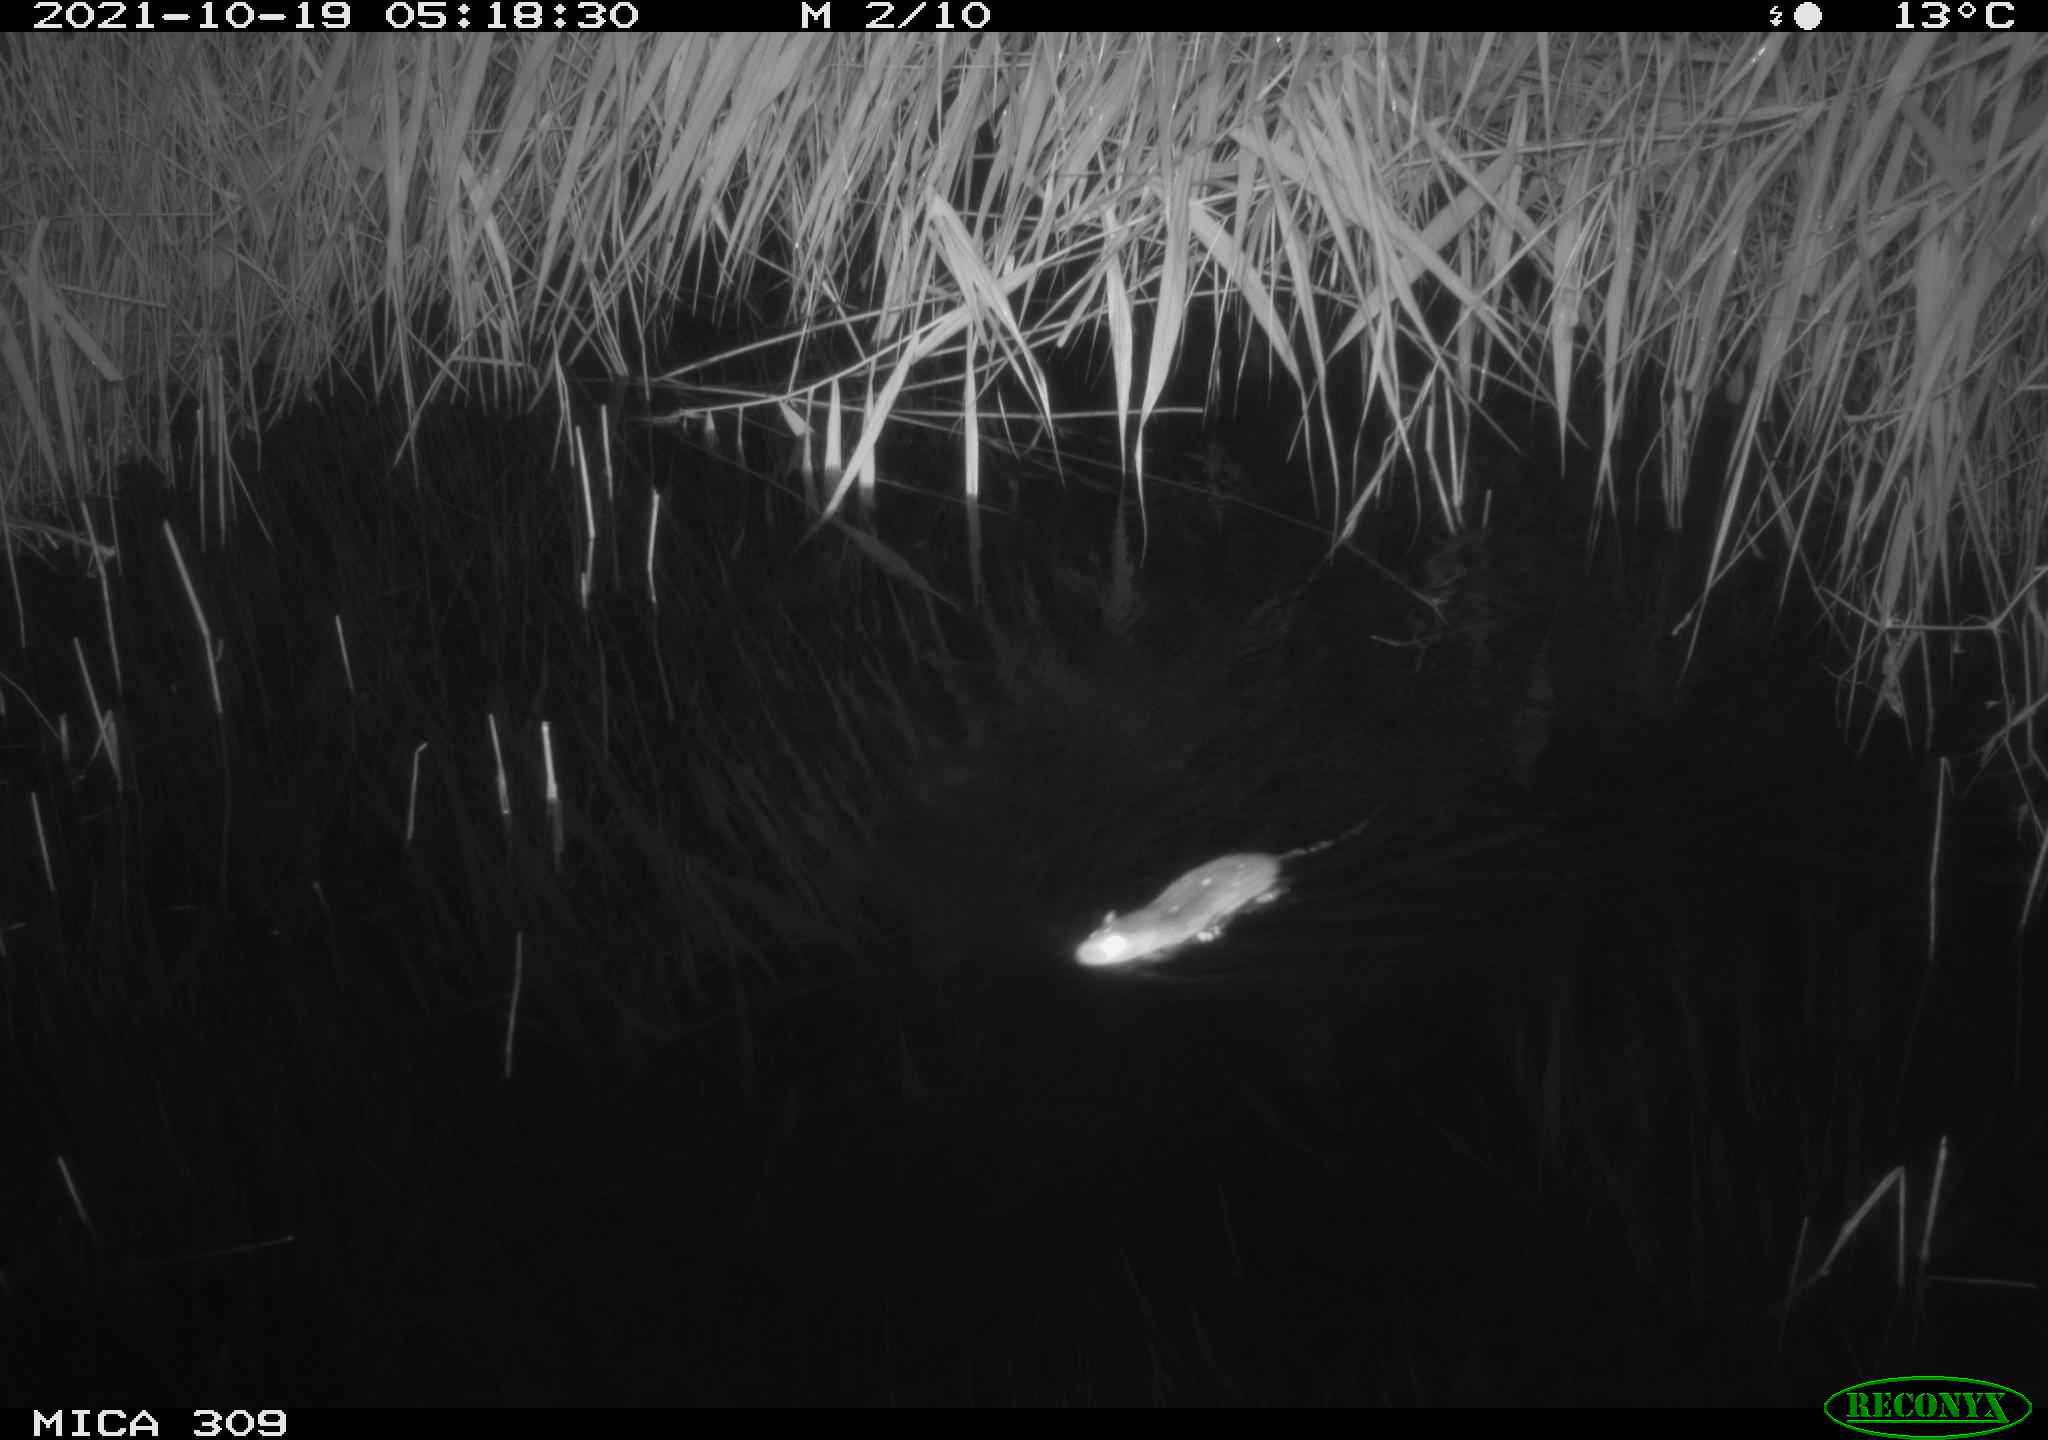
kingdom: Animalia
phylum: Chordata
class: Mammalia
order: Rodentia
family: Muridae
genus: Rattus
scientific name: Rattus norvegicus
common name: Brown rat
